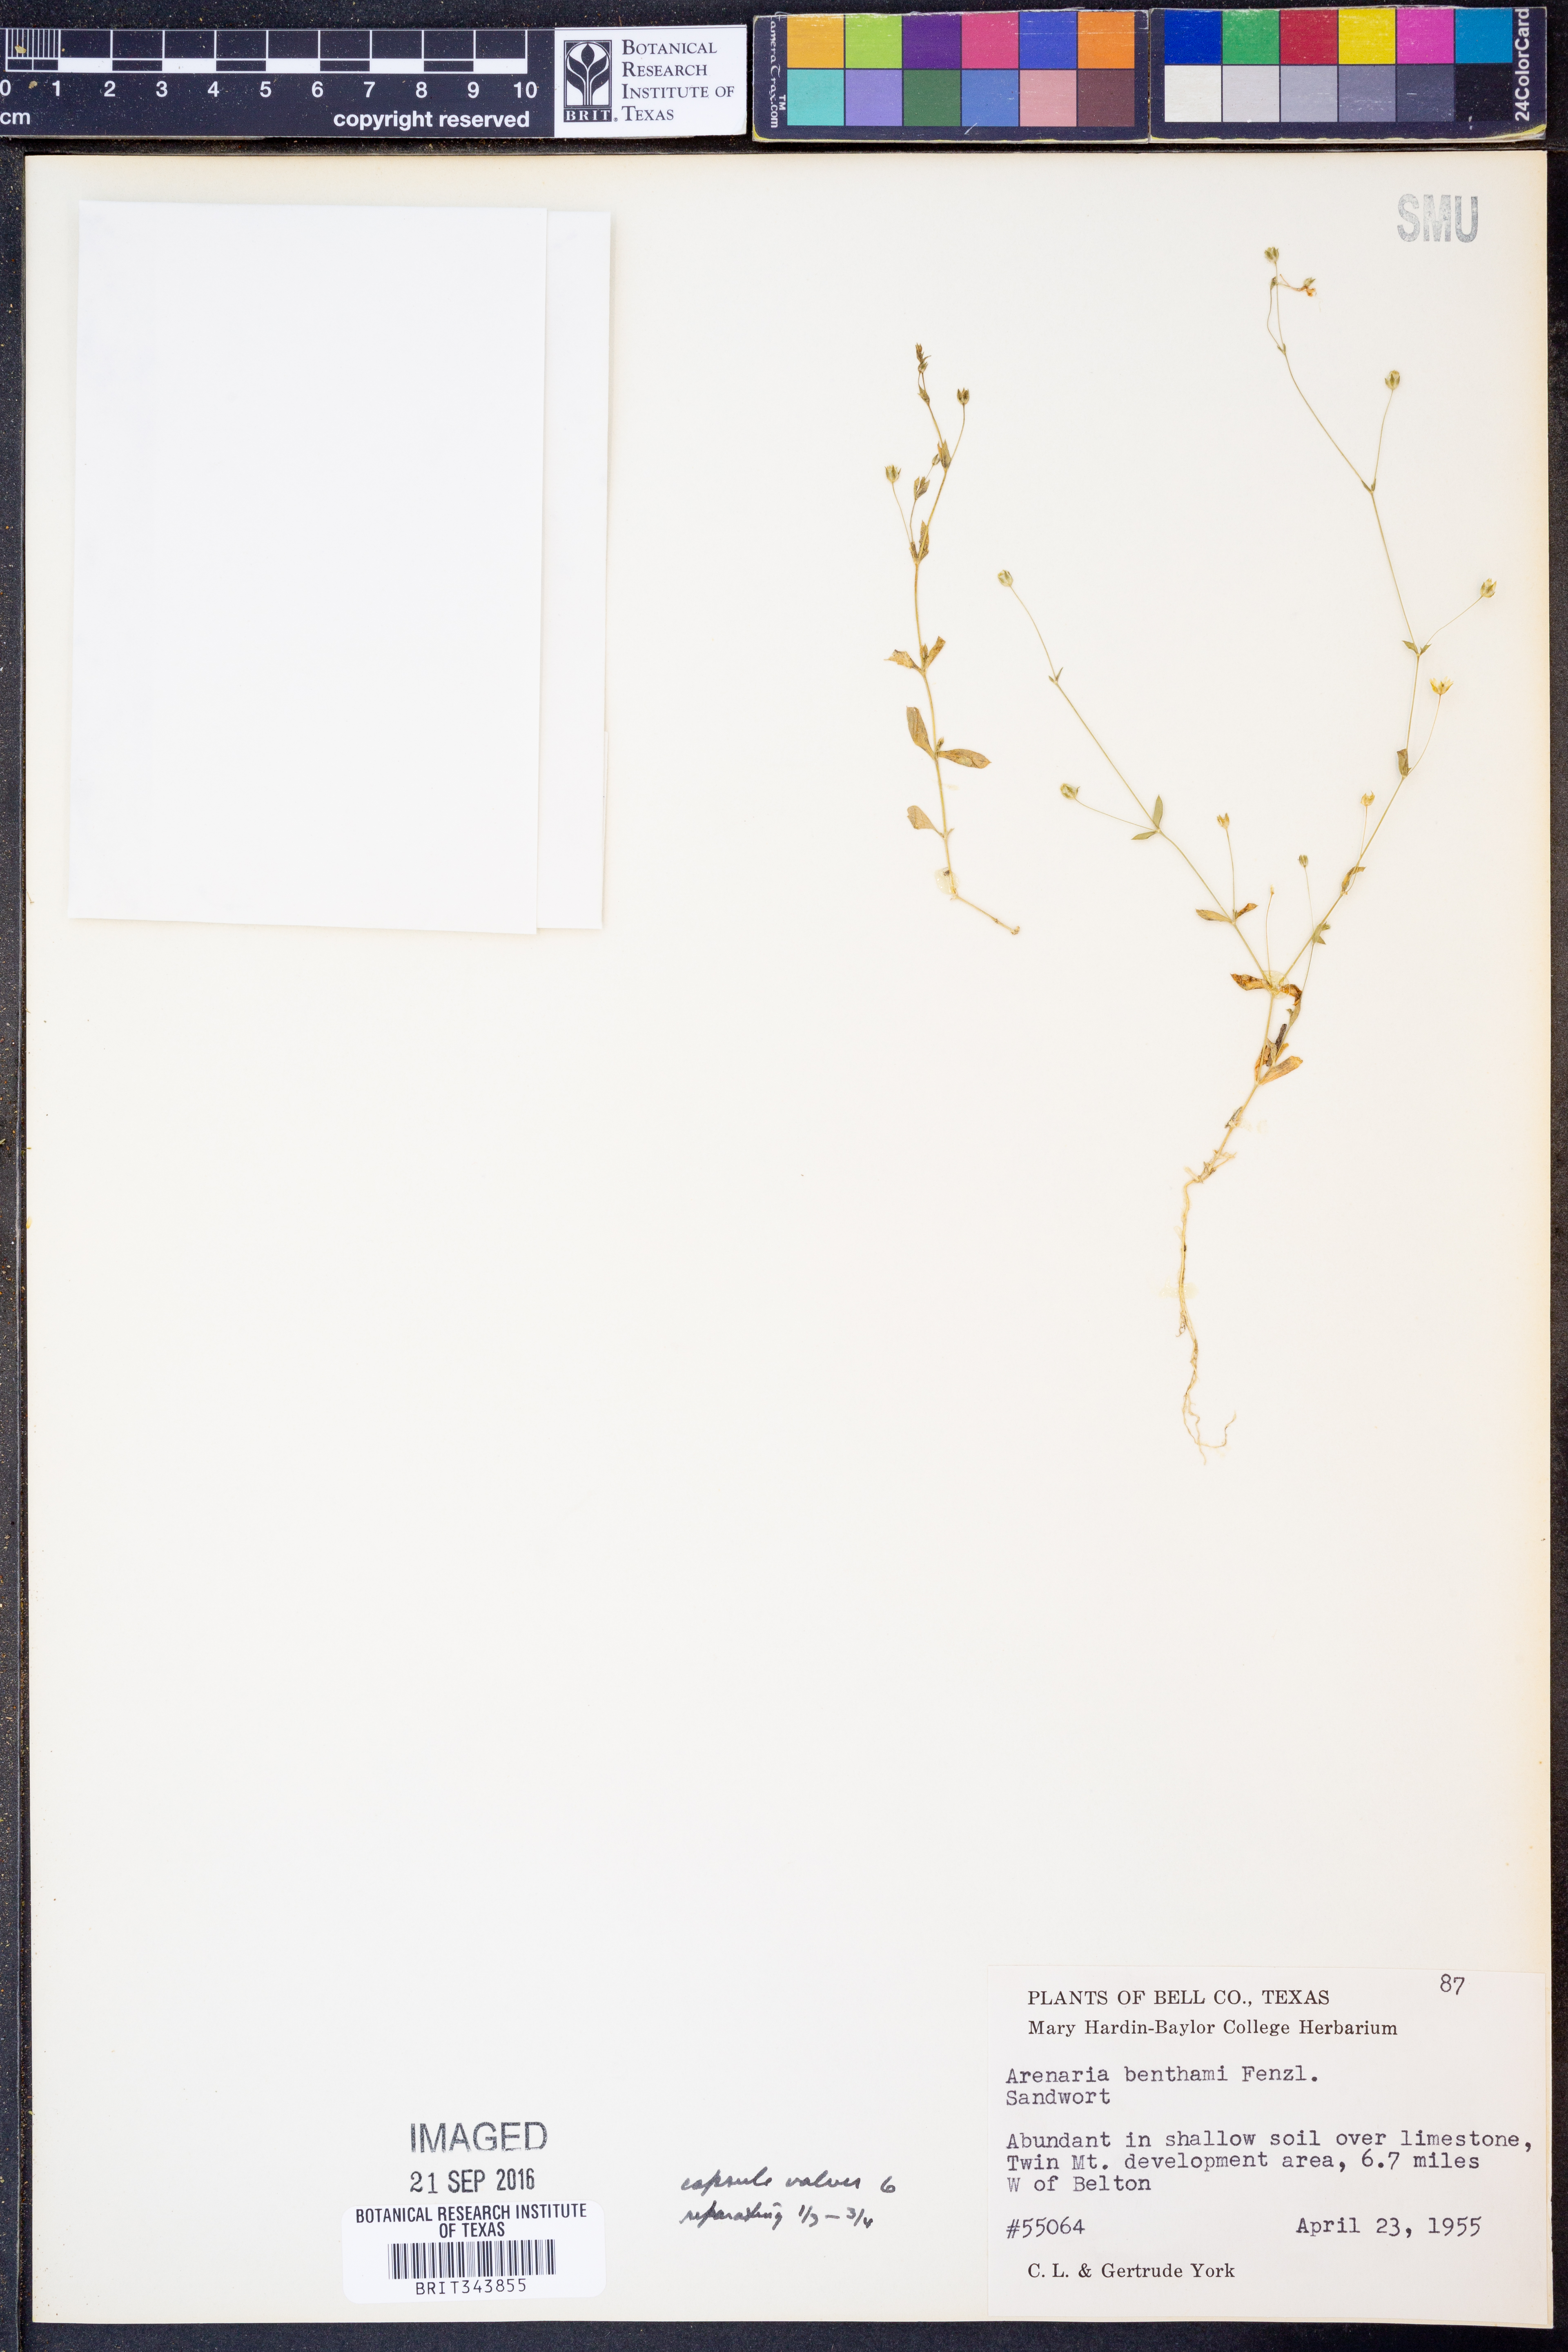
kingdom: Plantae
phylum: Tracheophyta
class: Magnoliopsida
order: Caryophyllales
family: Caryophyllaceae
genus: Arenaria
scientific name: Arenaria benthamii
